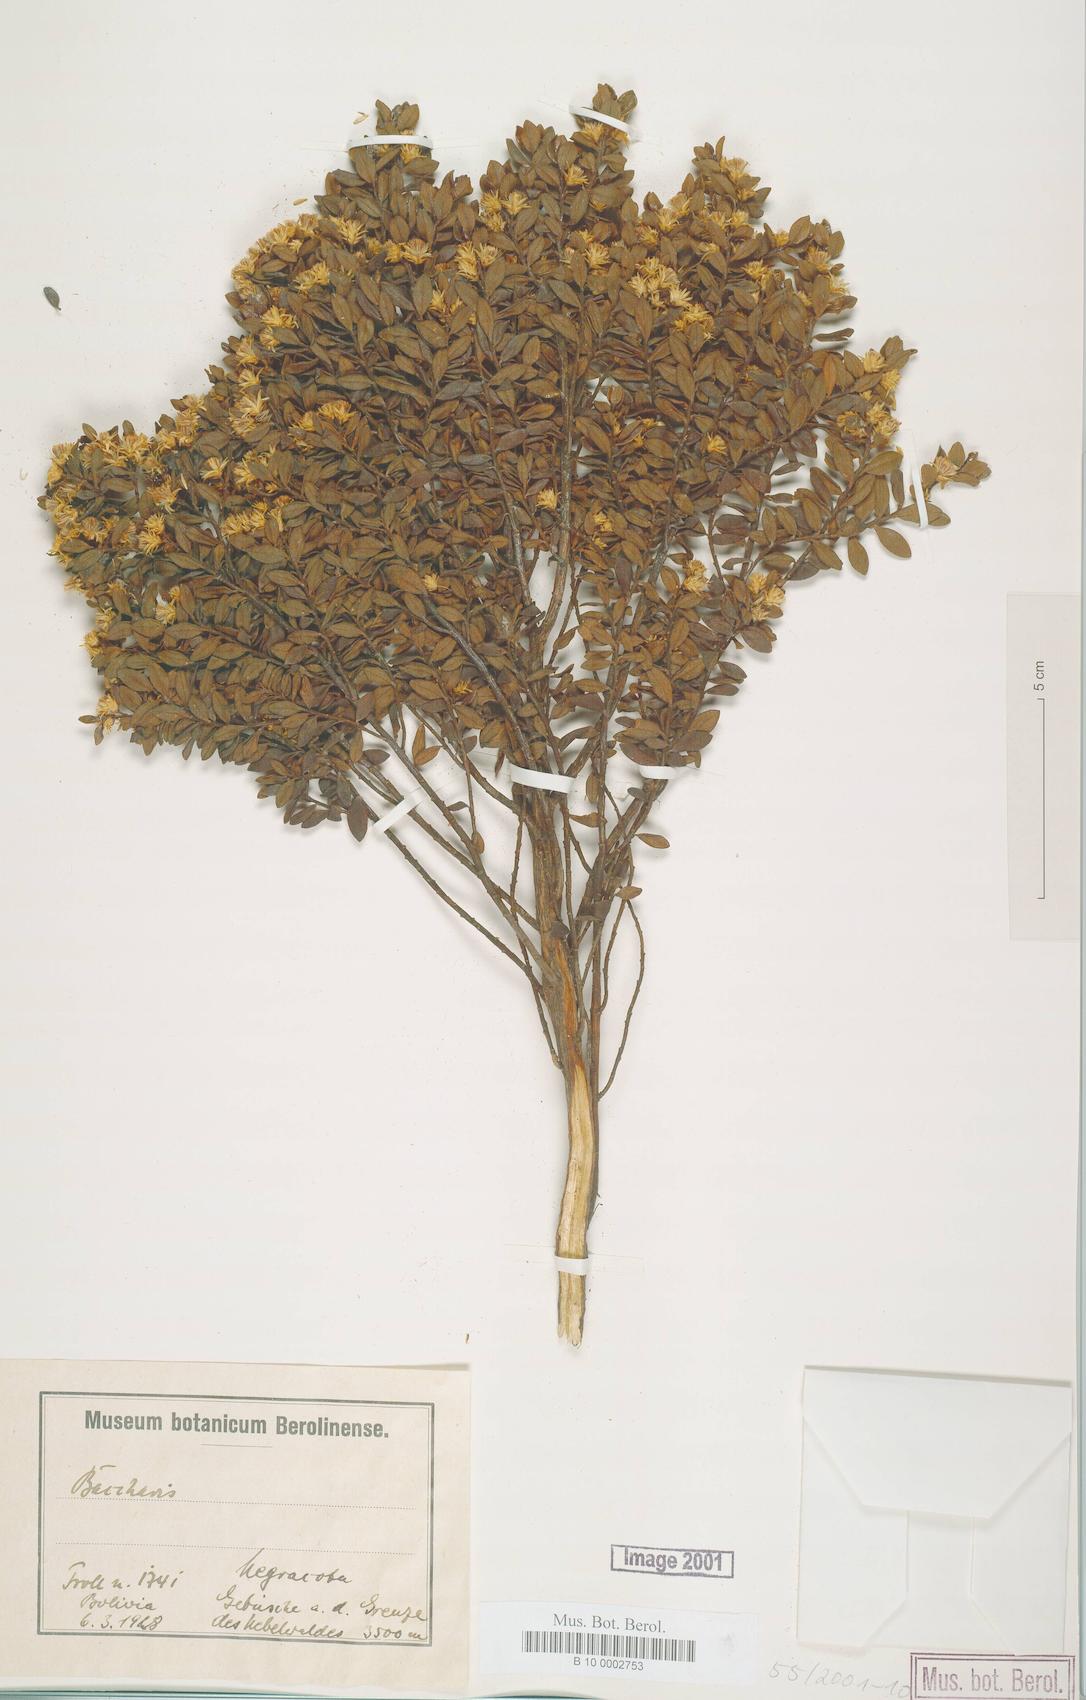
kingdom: Plantae
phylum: Tracheophyta
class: Magnoliopsida
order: Asterales
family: Asteraceae
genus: Baccharis
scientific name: Baccharis
